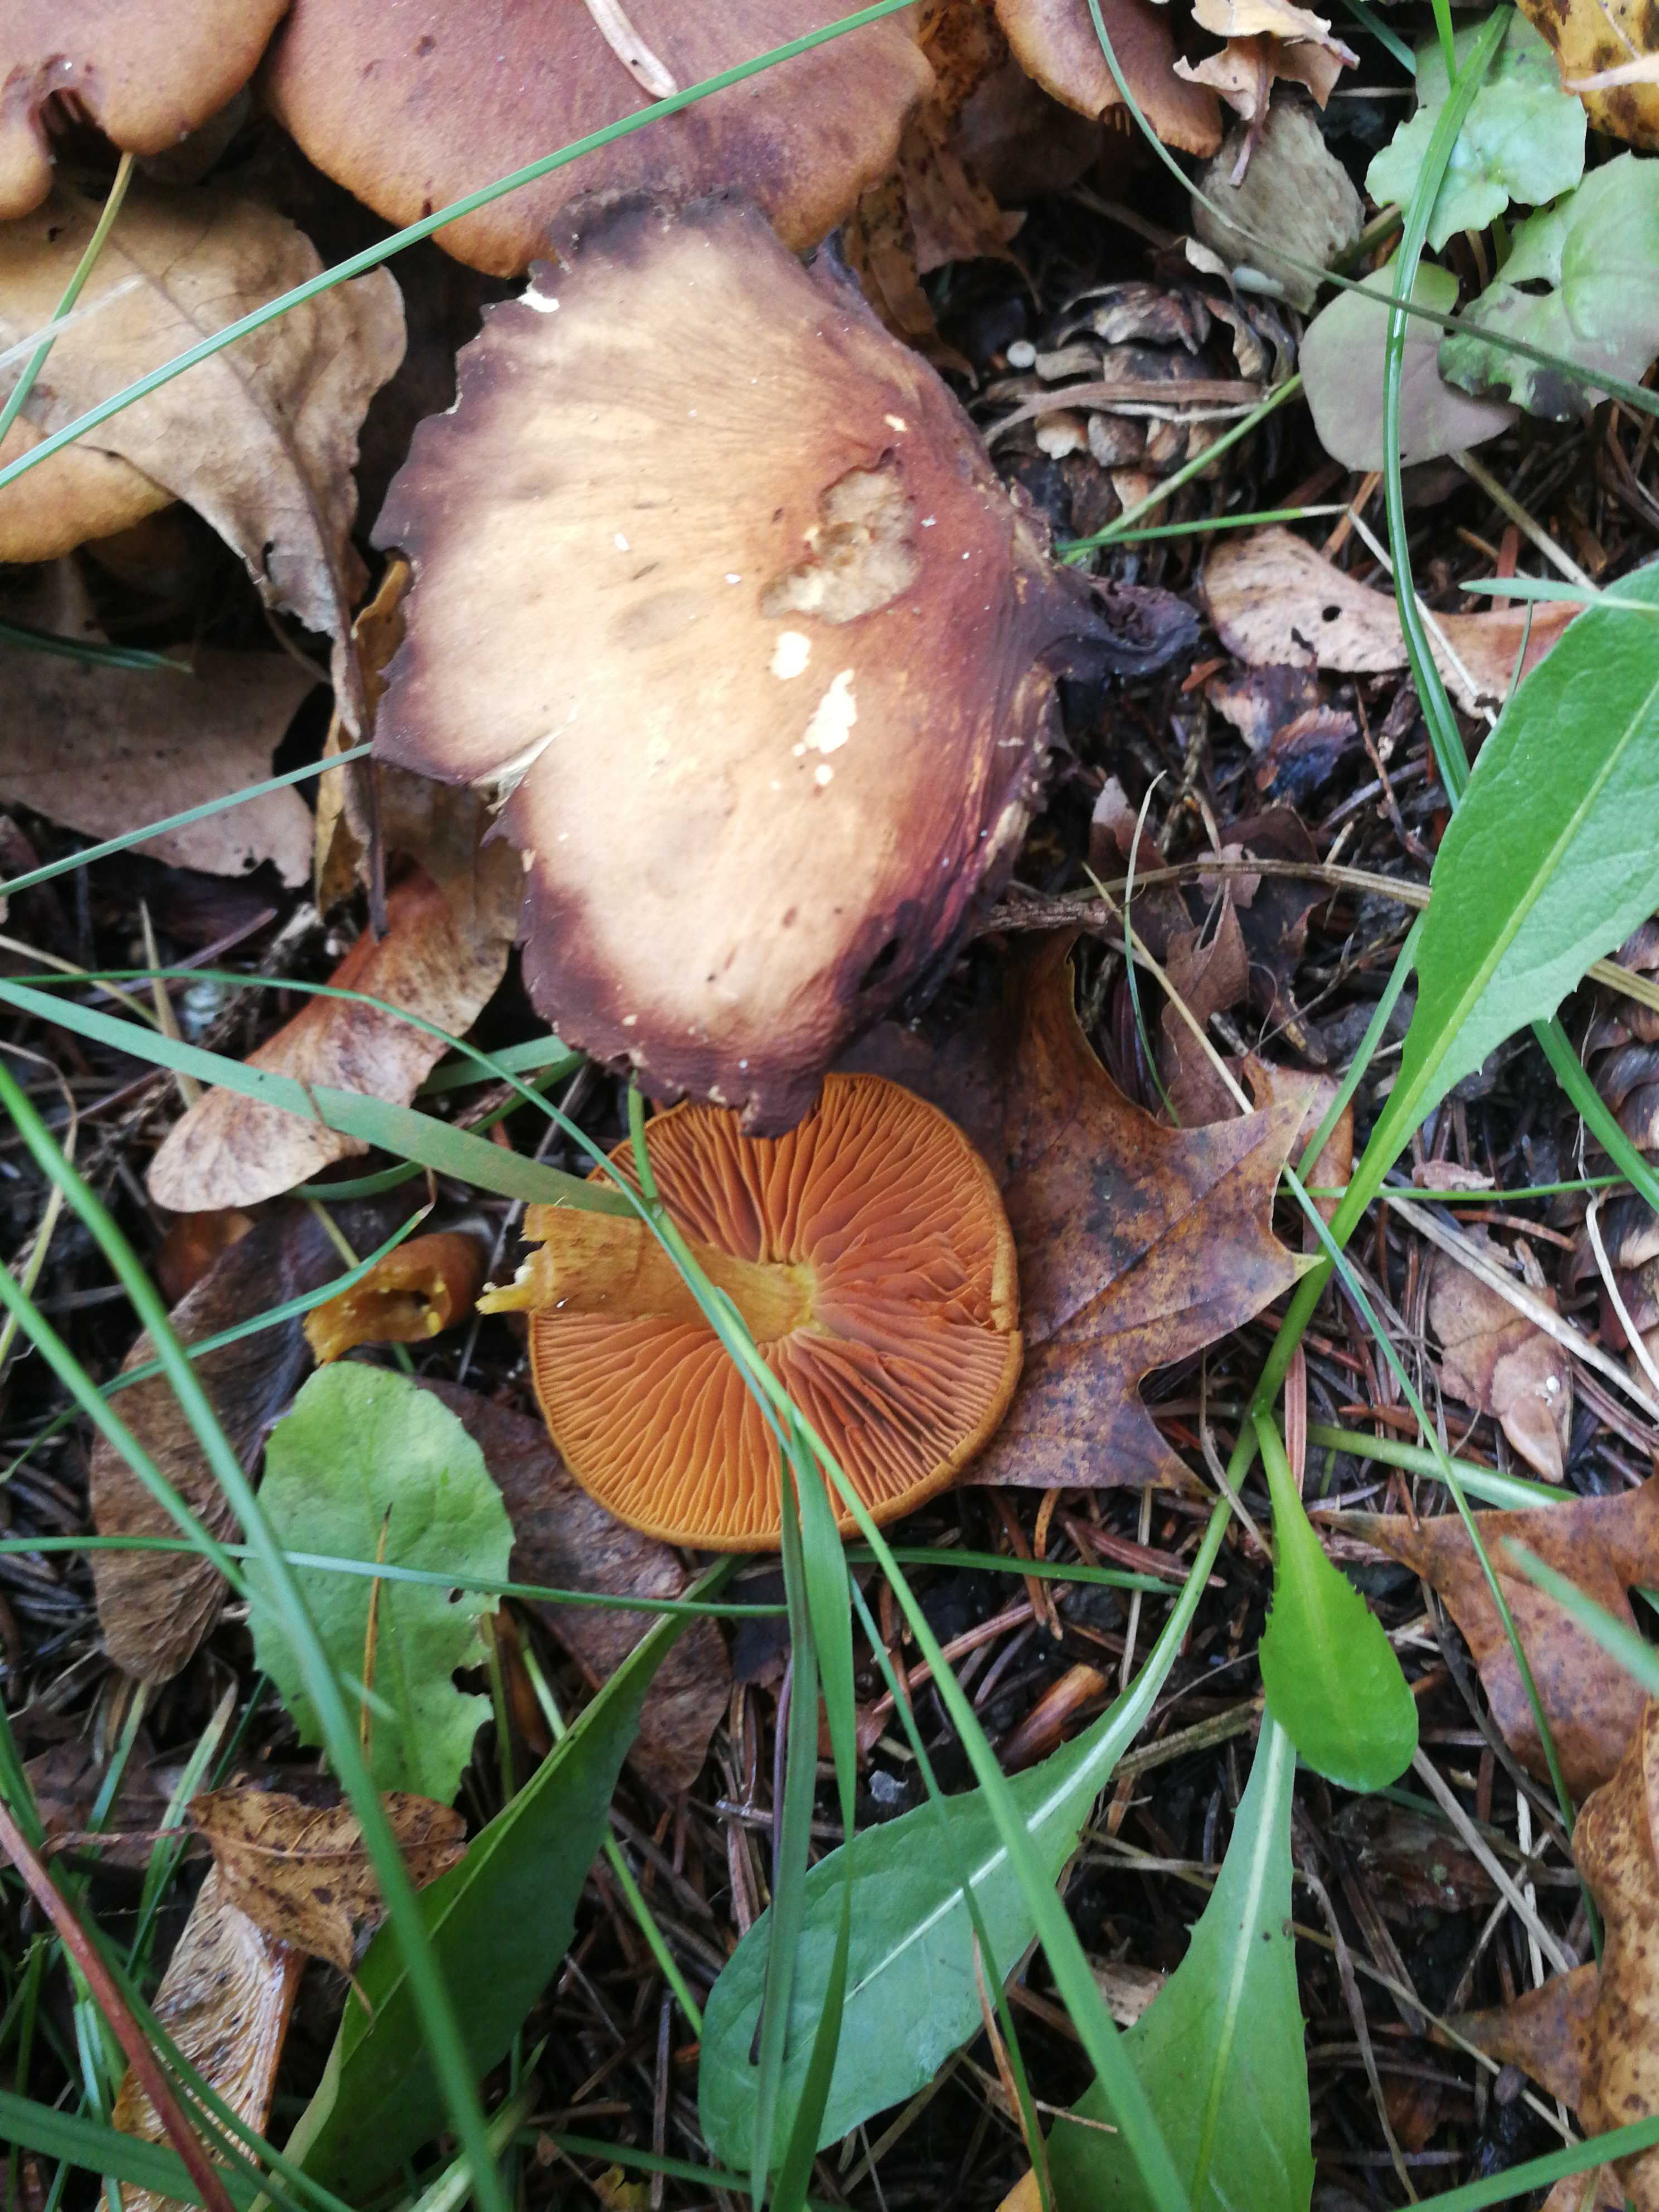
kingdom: Fungi
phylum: Basidiomycota
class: Agaricomycetes
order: Agaricales
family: Cortinariaceae
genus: Cortinarius
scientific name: Cortinarius
